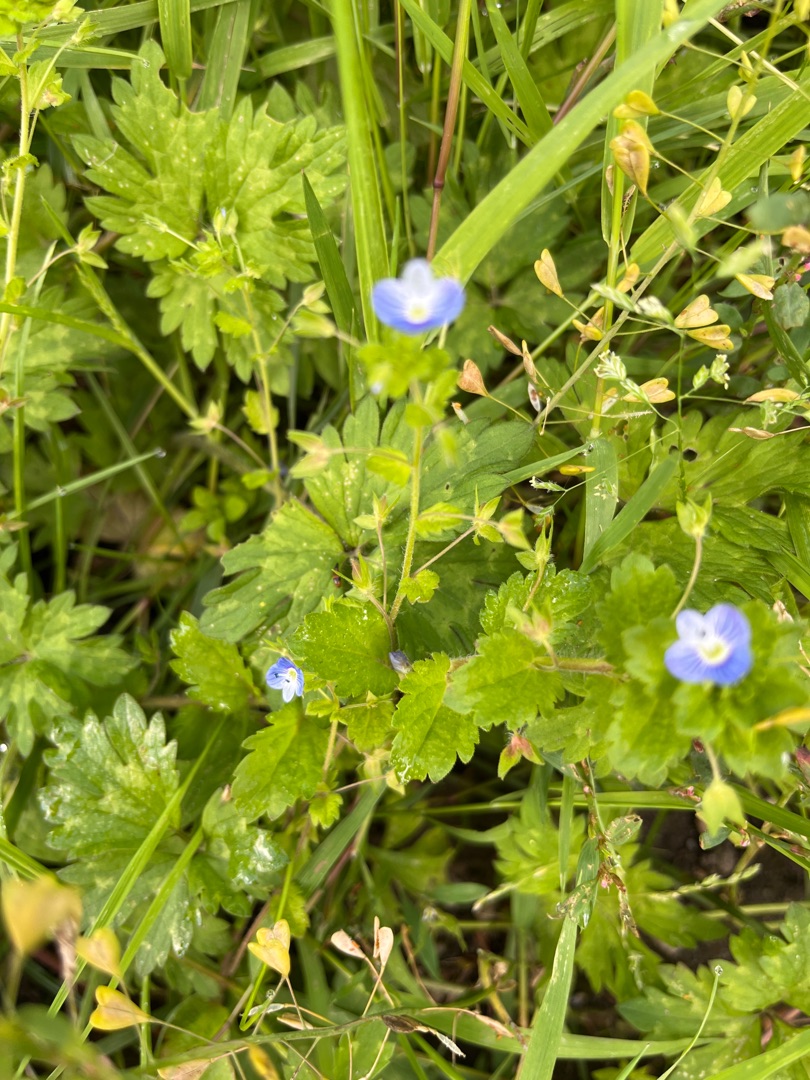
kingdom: Plantae
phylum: Tracheophyta
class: Magnoliopsida
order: Lamiales
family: Plantaginaceae
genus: Veronica
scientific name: Veronica persica
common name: Storkronet ærenpris
